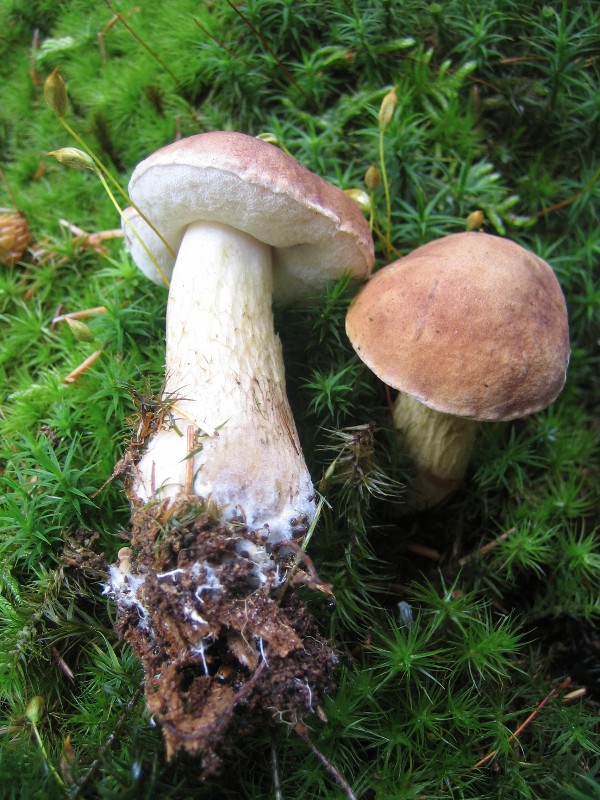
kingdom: Fungi
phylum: Basidiomycota
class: Agaricomycetes
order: Boletales
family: Boletaceae
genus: Tylopilus
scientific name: Tylopilus felleus
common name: galderørhat
